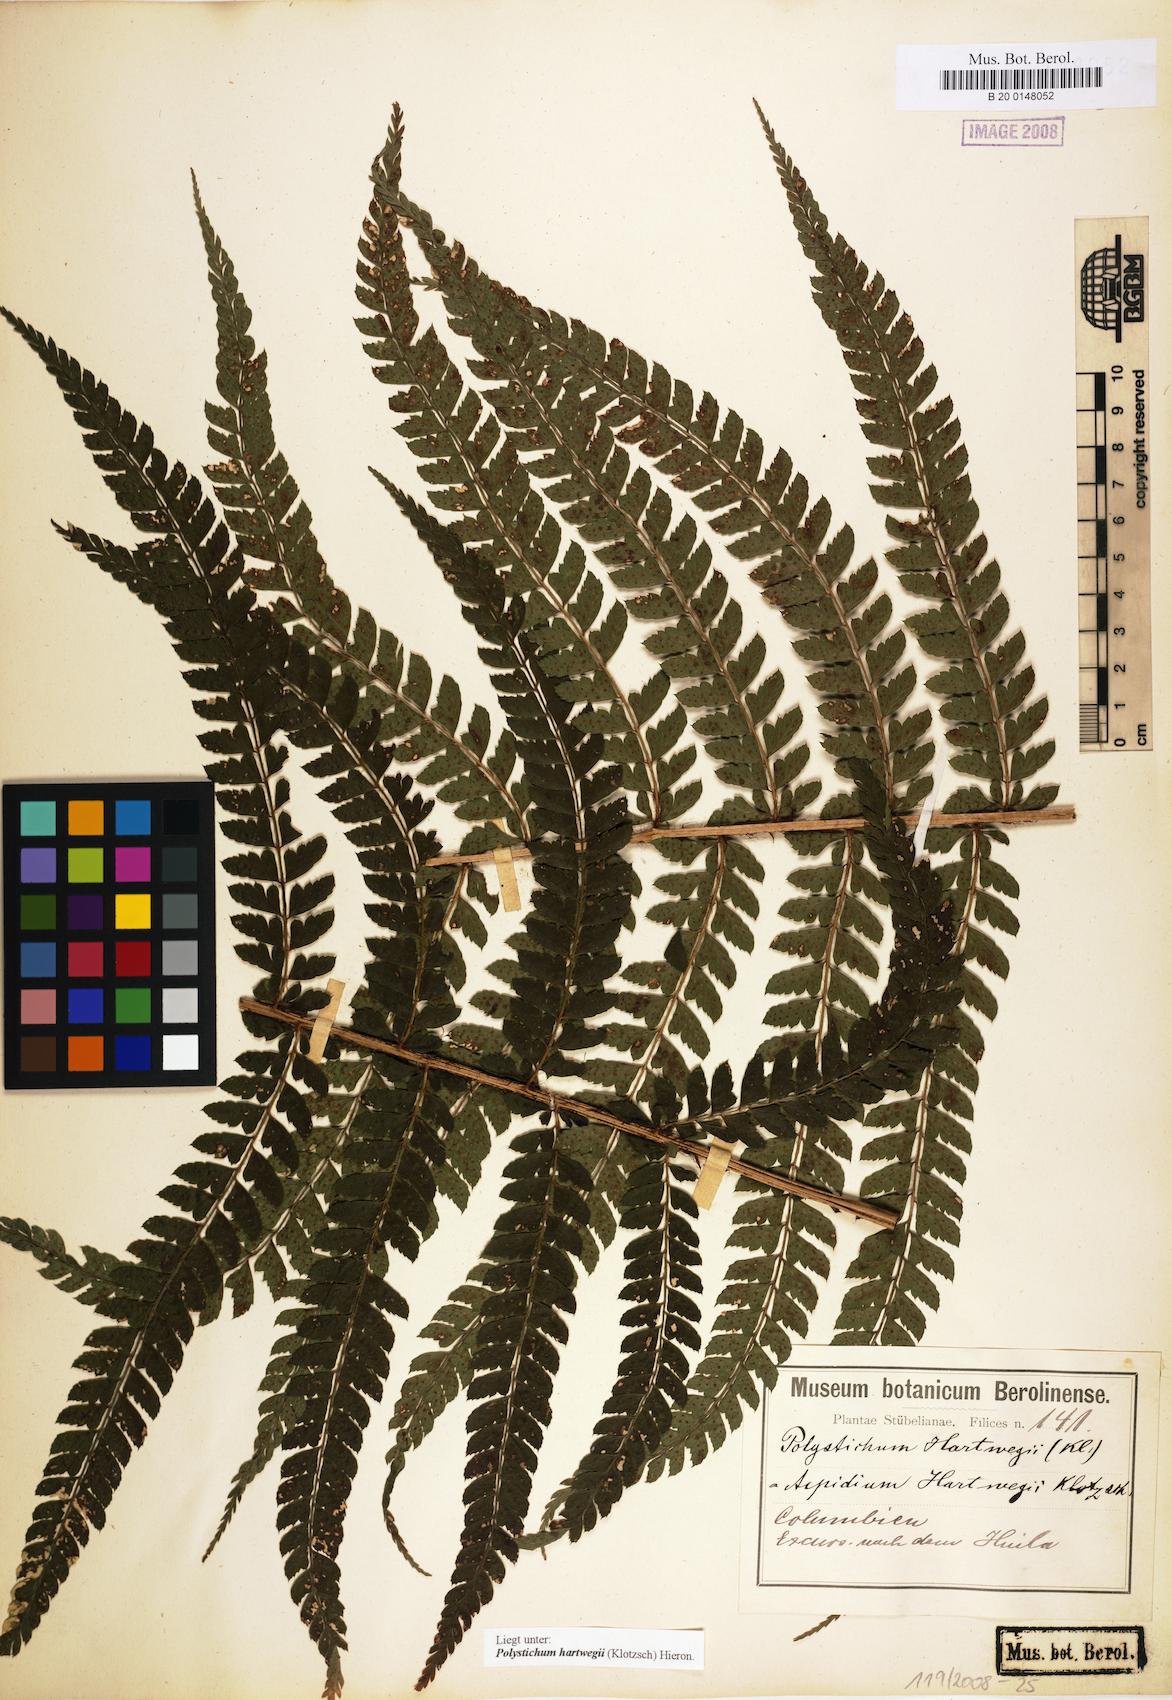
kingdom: Plantae
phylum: Tracheophyta
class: Polypodiopsida
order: Polypodiales
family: Dryopteridaceae
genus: Polystichum
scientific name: Polystichum hartwegii
